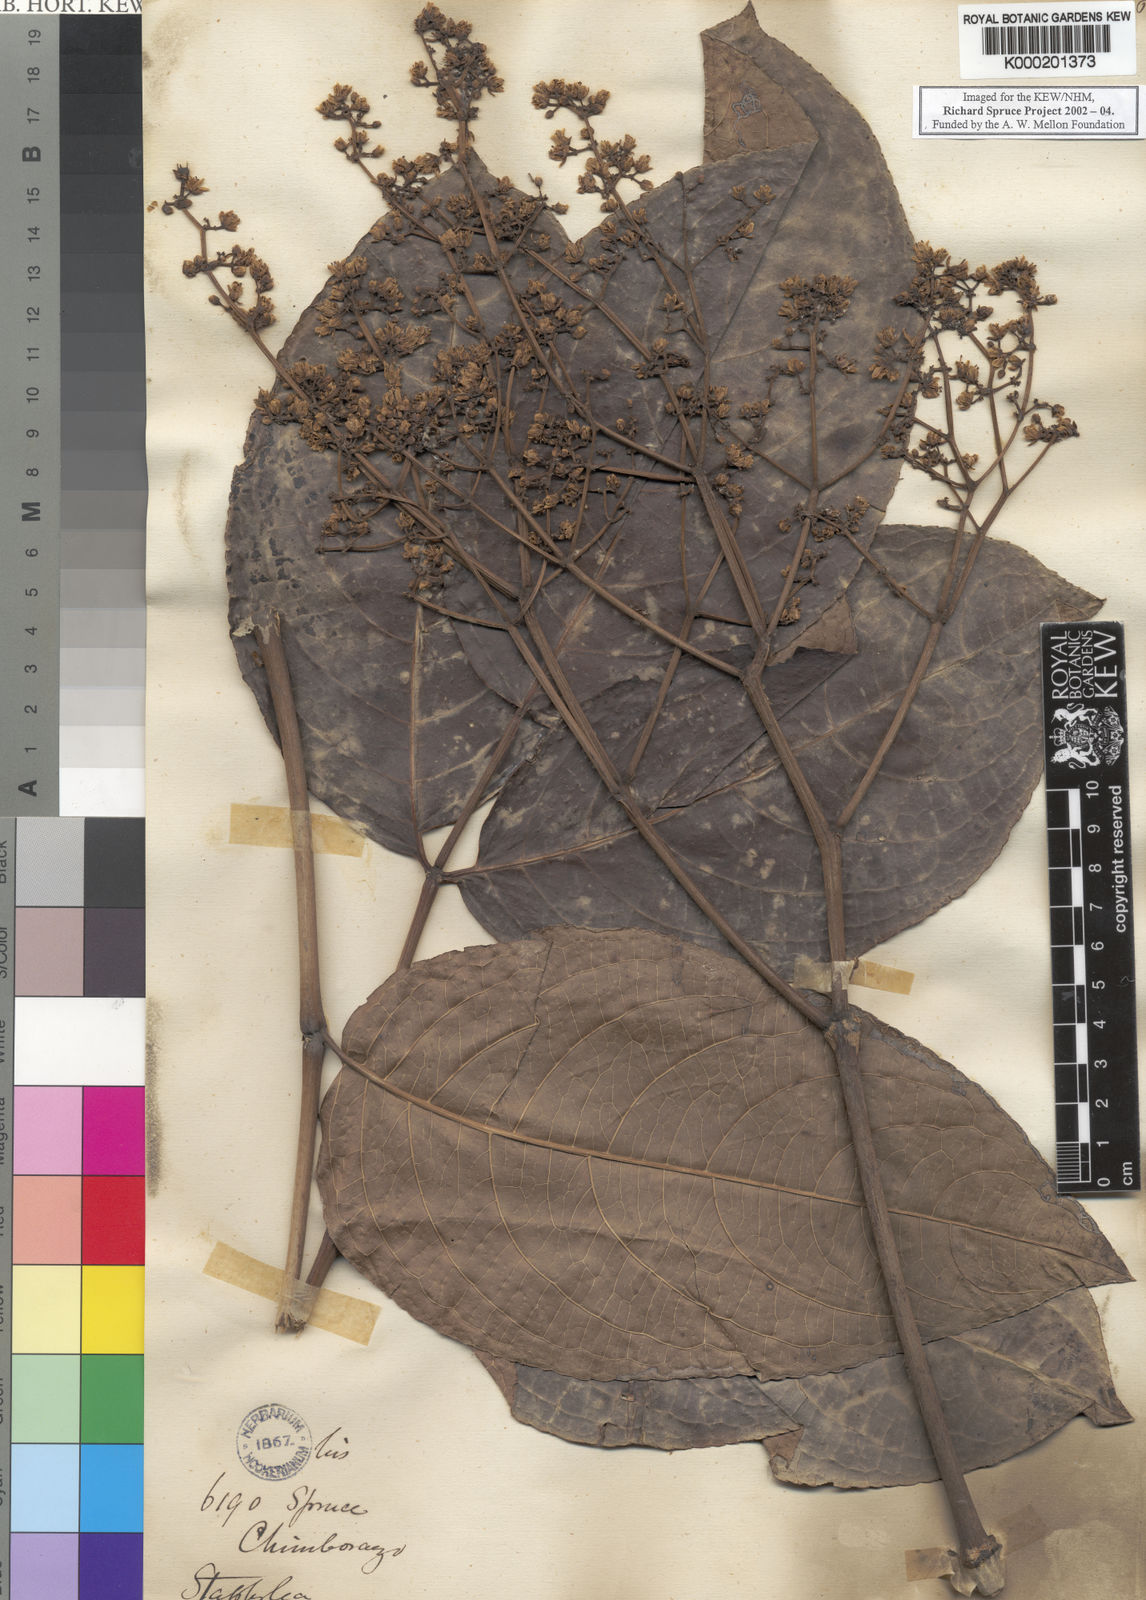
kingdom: Plantae
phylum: Tracheophyta
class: Magnoliopsida
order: Crossosomatales
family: Staphyleaceae
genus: Turpinia
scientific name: Turpinia
